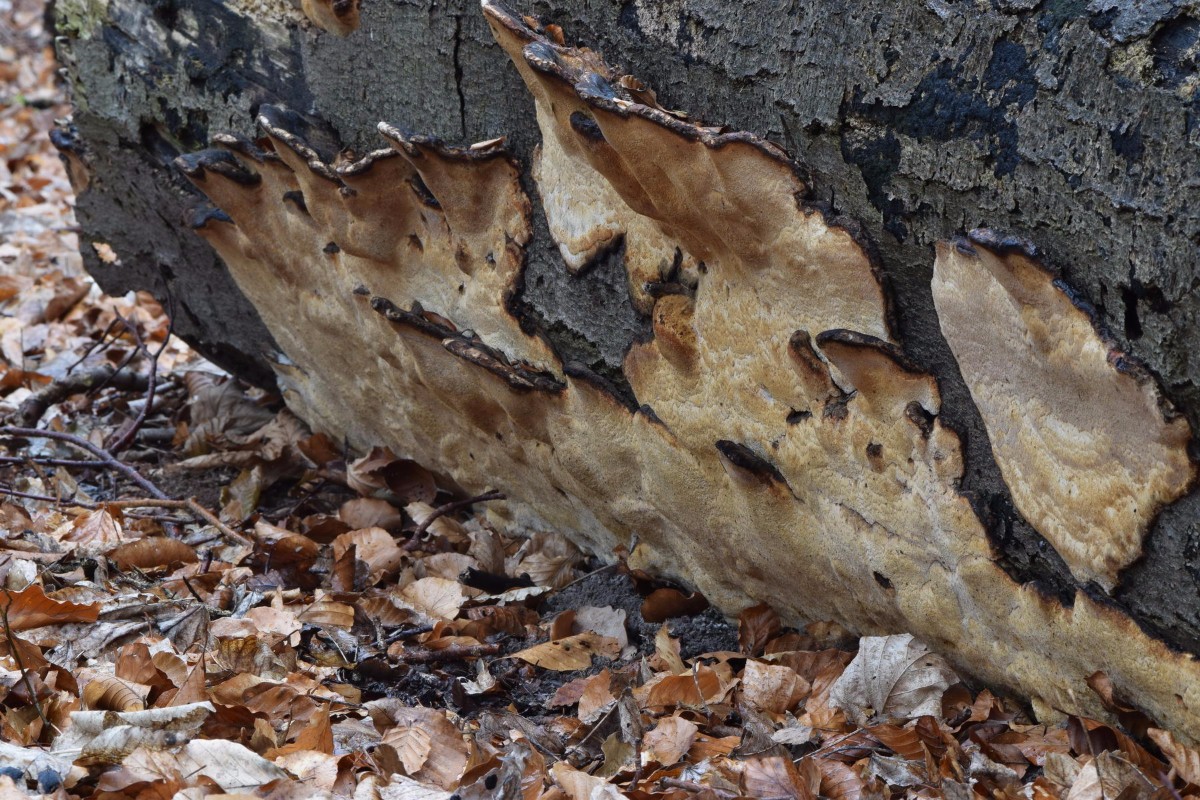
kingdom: Fungi
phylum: Basidiomycota
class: Agaricomycetes
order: Polyporales
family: Ischnodermataceae
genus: Ischnoderma
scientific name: Ischnoderma resinosum
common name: løv-tjæreporesvamp
